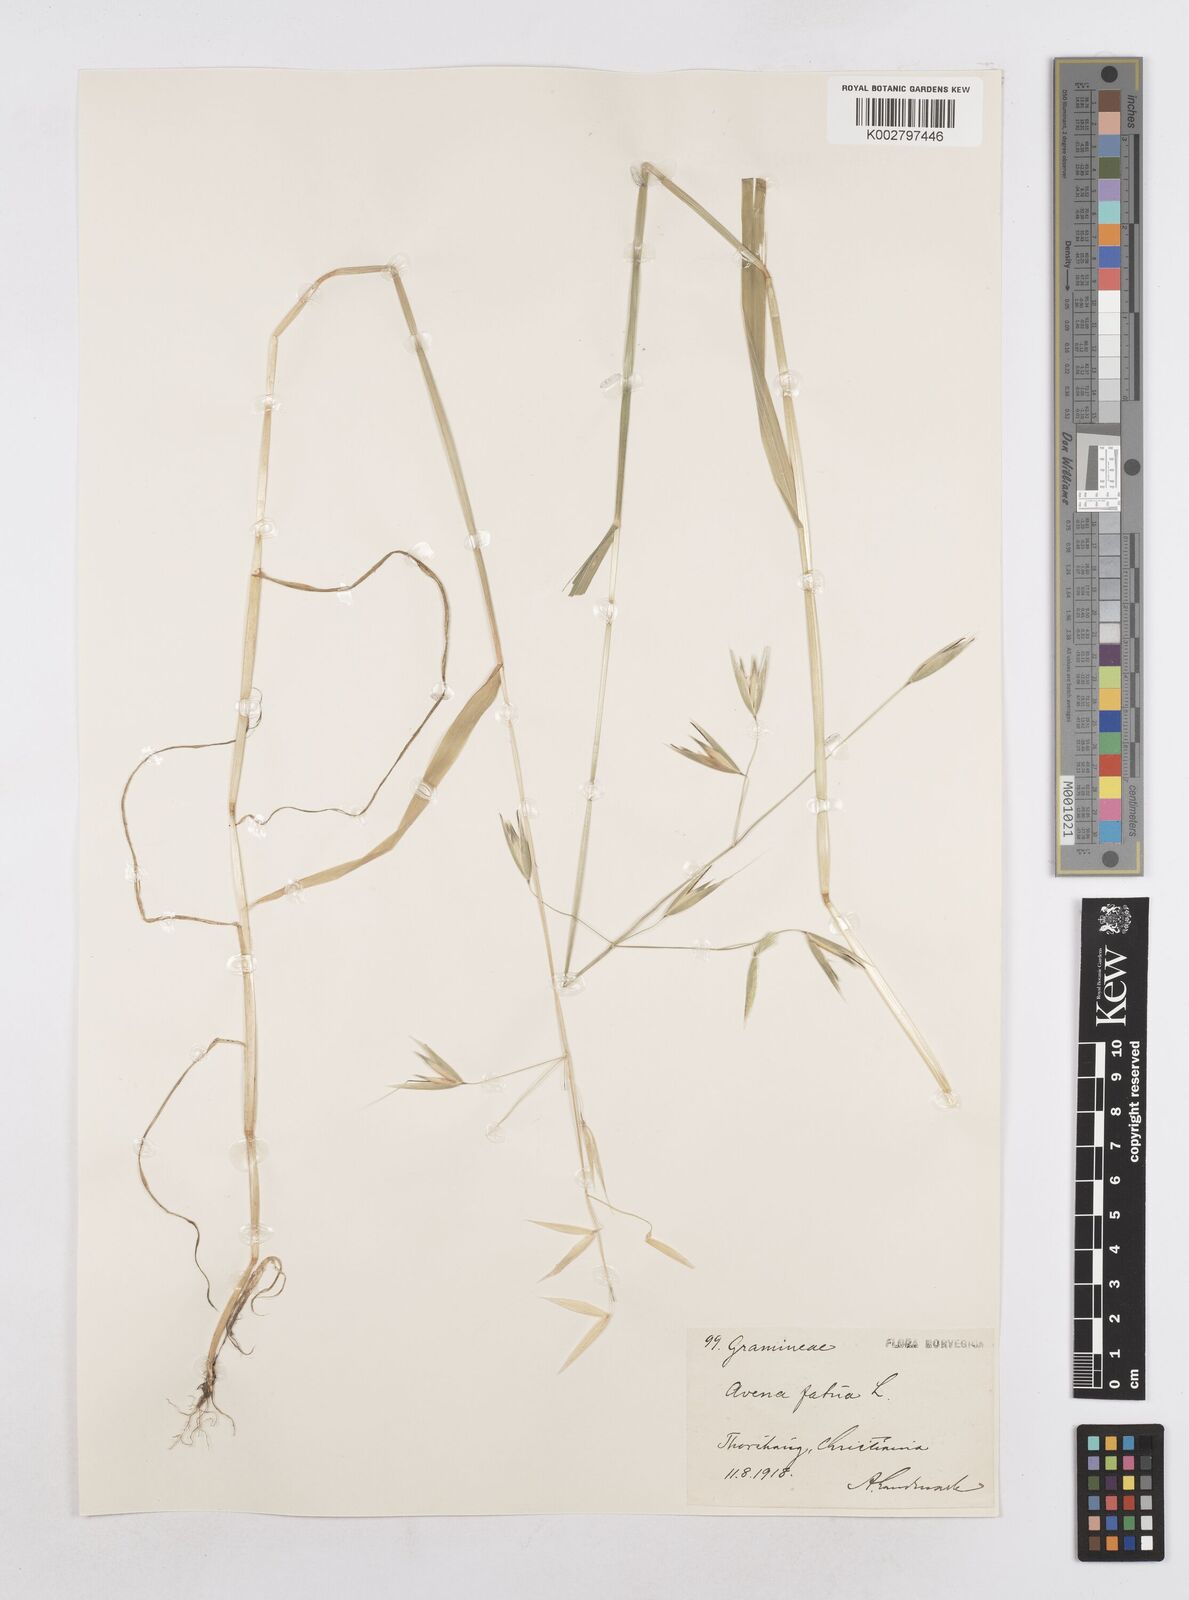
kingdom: Plantae
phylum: Tracheophyta
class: Liliopsida
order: Poales
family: Poaceae
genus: Avena
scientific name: Avena fatua
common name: Wild oat
